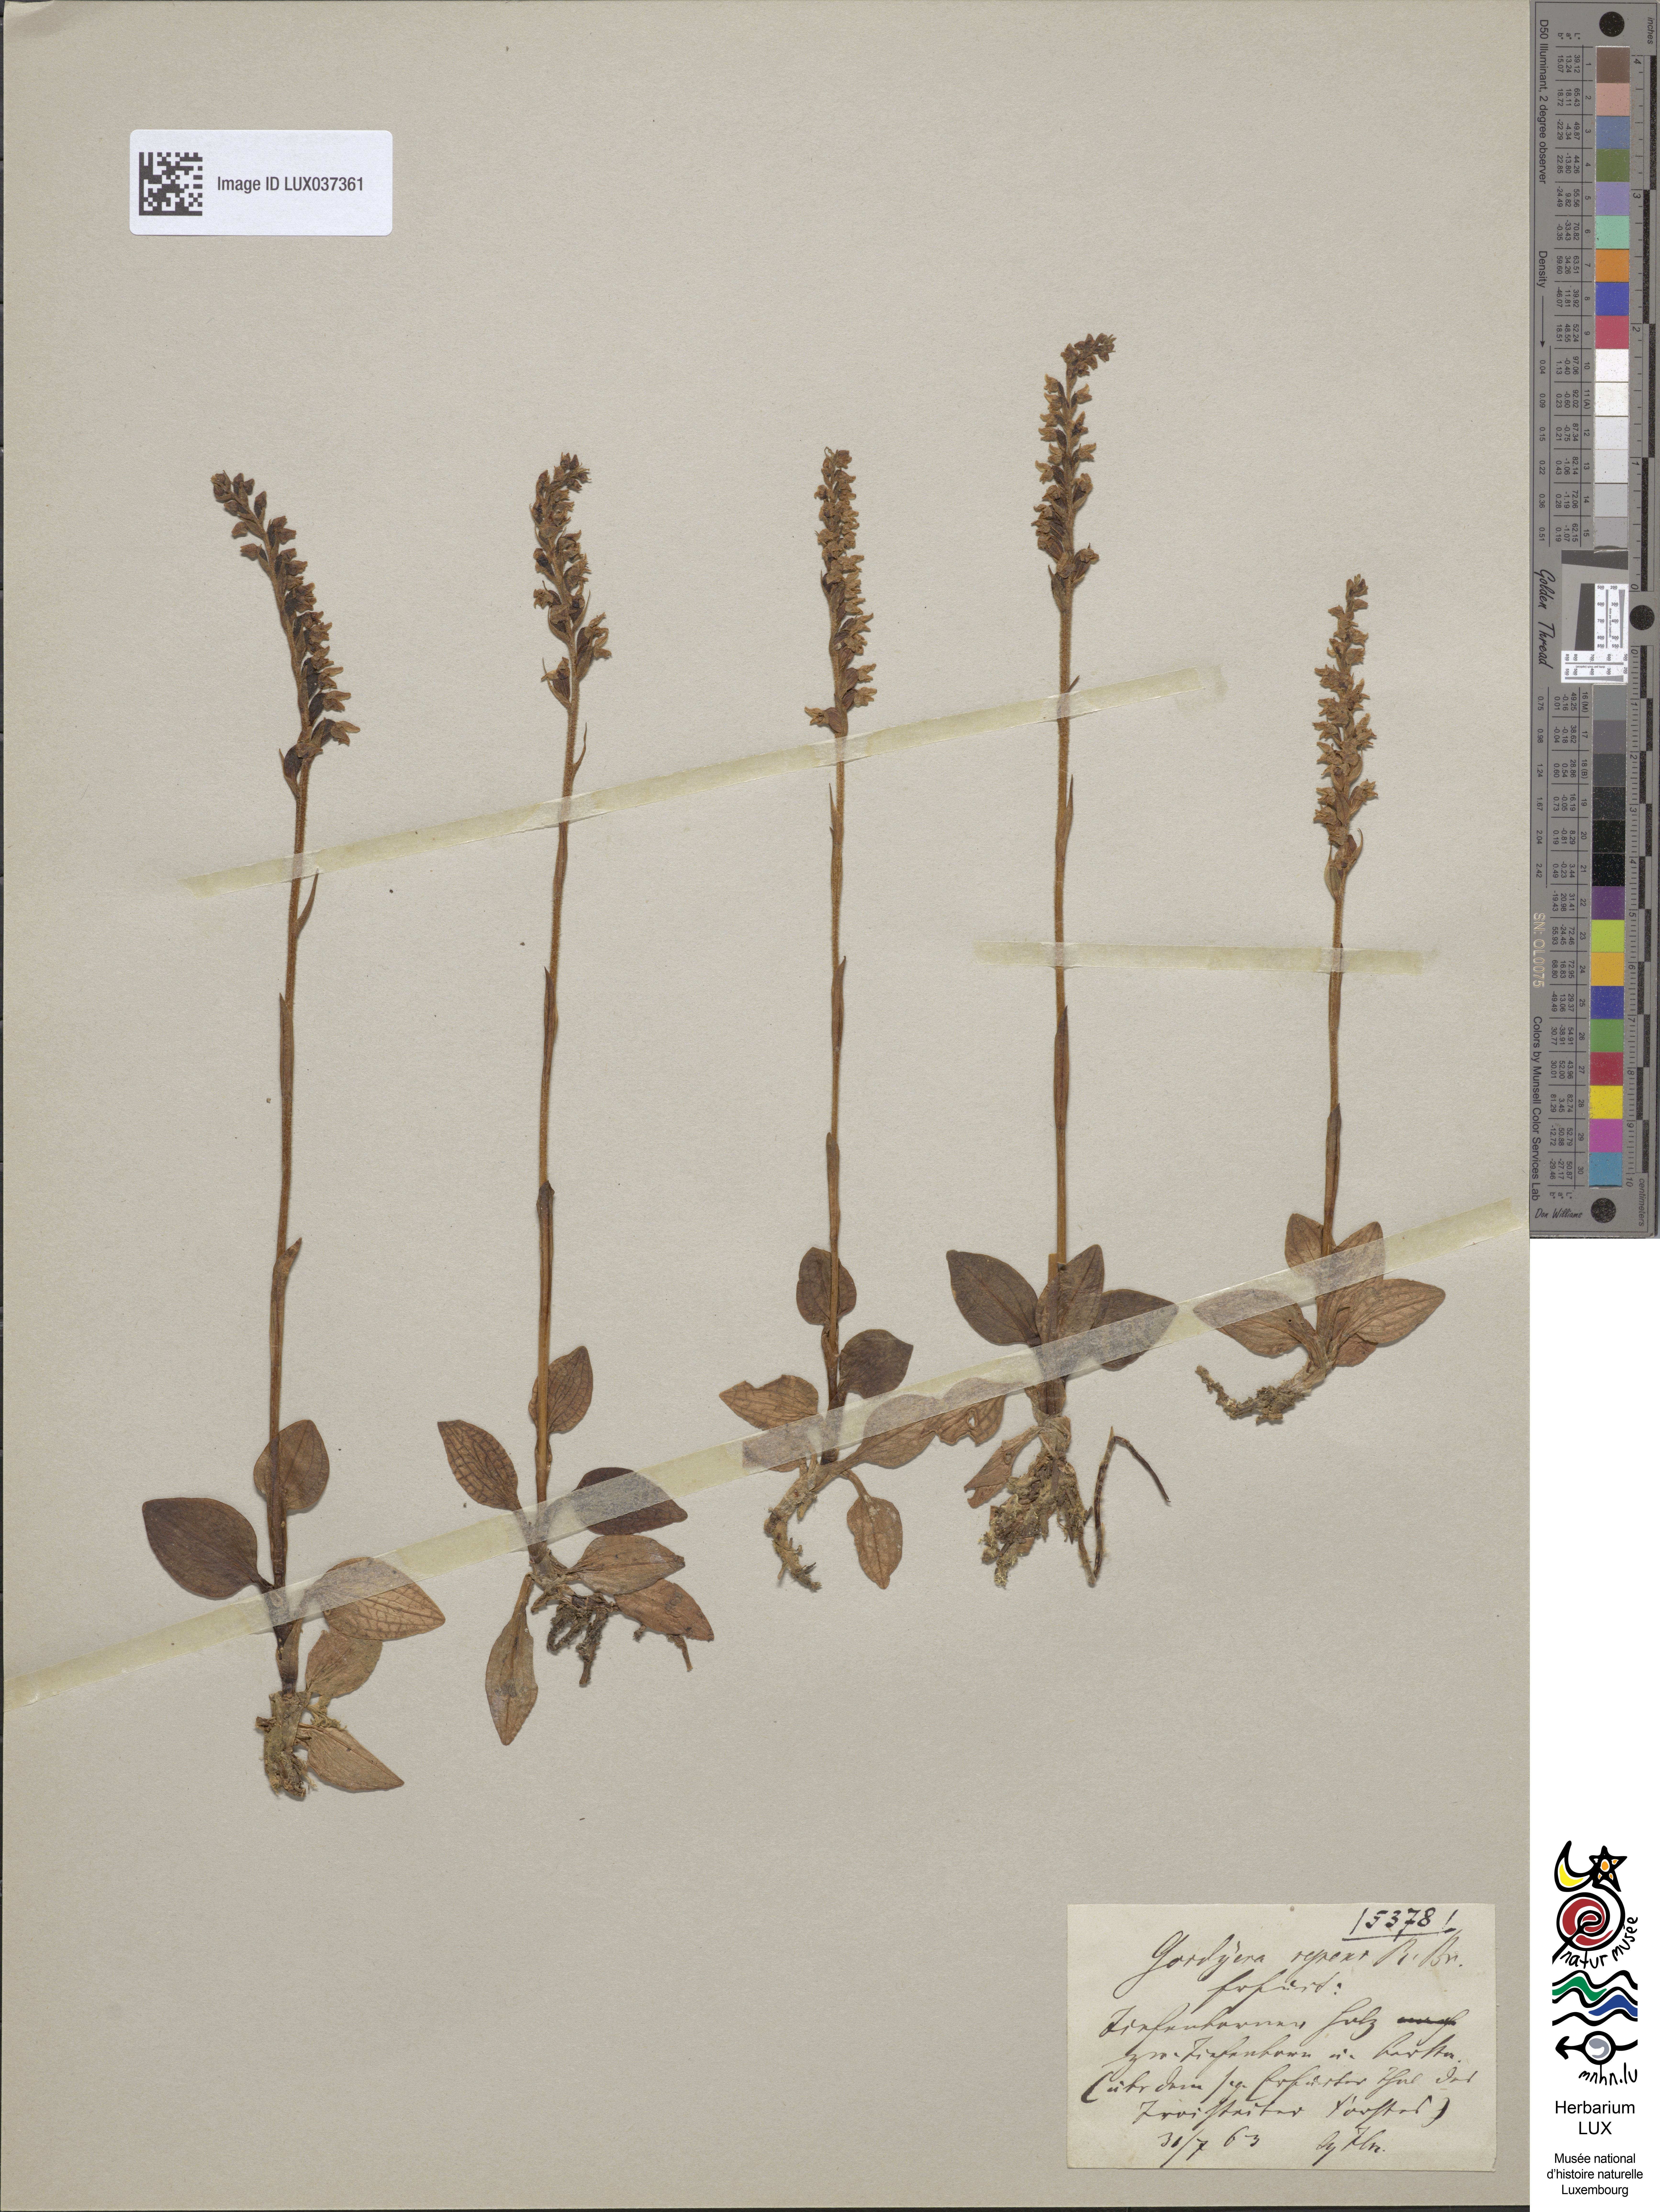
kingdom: Plantae
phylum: Tracheophyta
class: Liliopsida
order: Asparagales
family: Orchidaceae
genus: Goodyera
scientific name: Goodyera repens
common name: Creeping lady's-tresses
